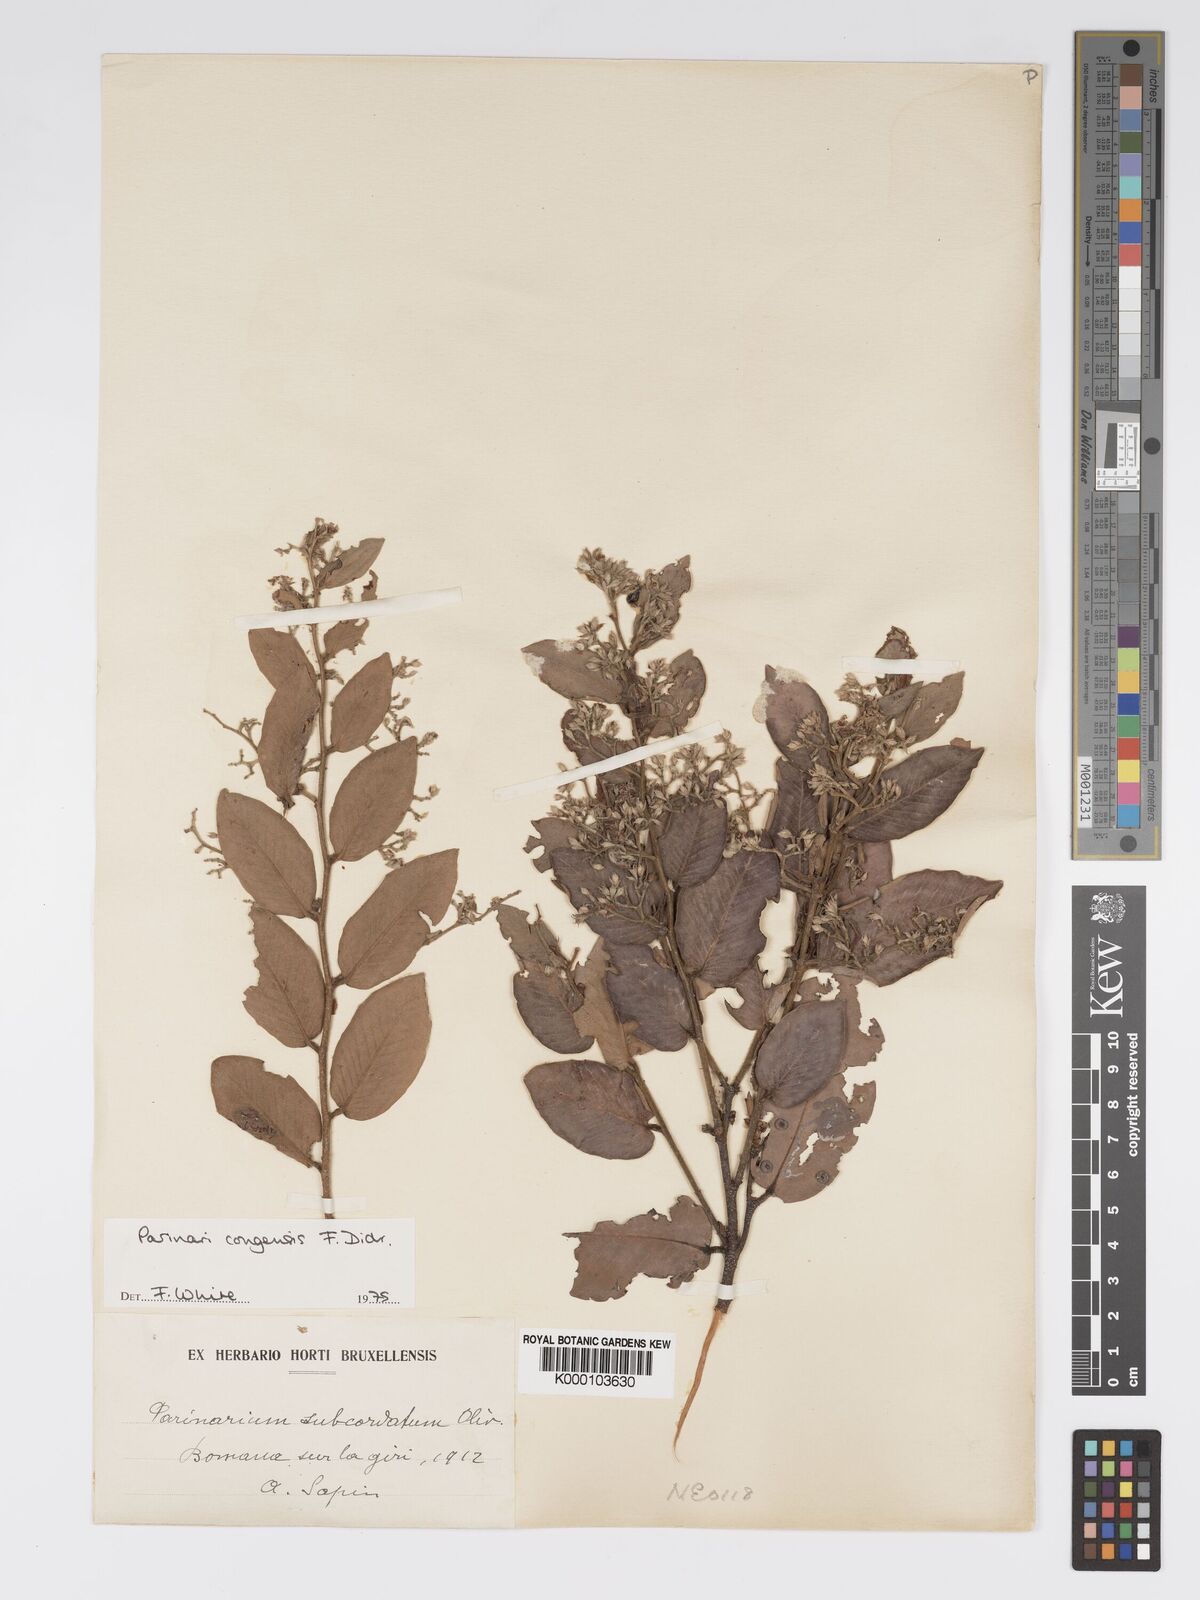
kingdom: Plantae
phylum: Tracheophyta
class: Magnoliopsida
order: Malpighiales
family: Chrysobalanaceae
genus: Parinari
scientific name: Parinari congensis
